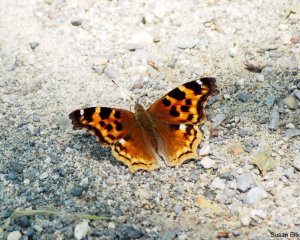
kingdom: Animalia
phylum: Arthropoda
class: Insecta
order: Lepidoptera
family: Nymphalidae
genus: Polygonia
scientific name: Polygonia vaualbum
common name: Compton Tortoiseshell
